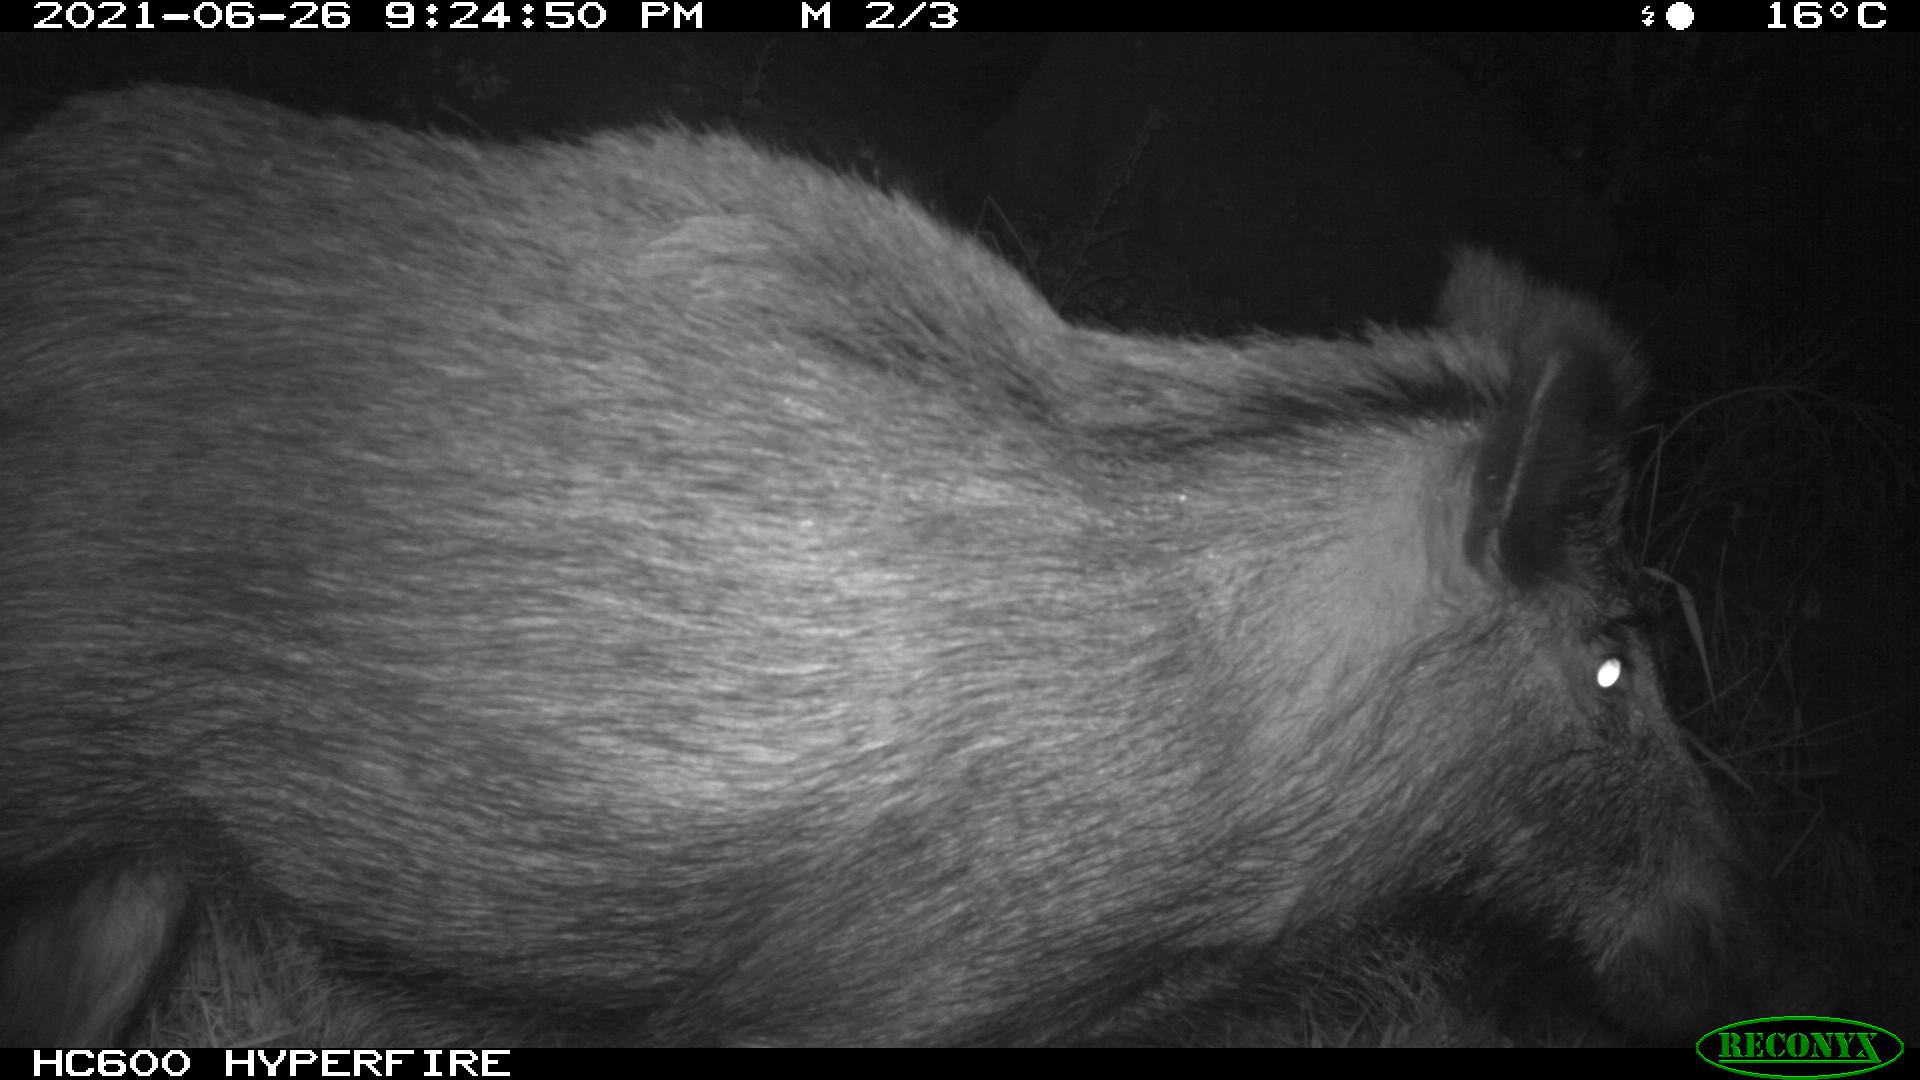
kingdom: Animalia
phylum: Chordata
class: Mammalia
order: Artiodactyla
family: Suidae
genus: Sus
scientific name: Sus scrofa
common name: Wild boar
